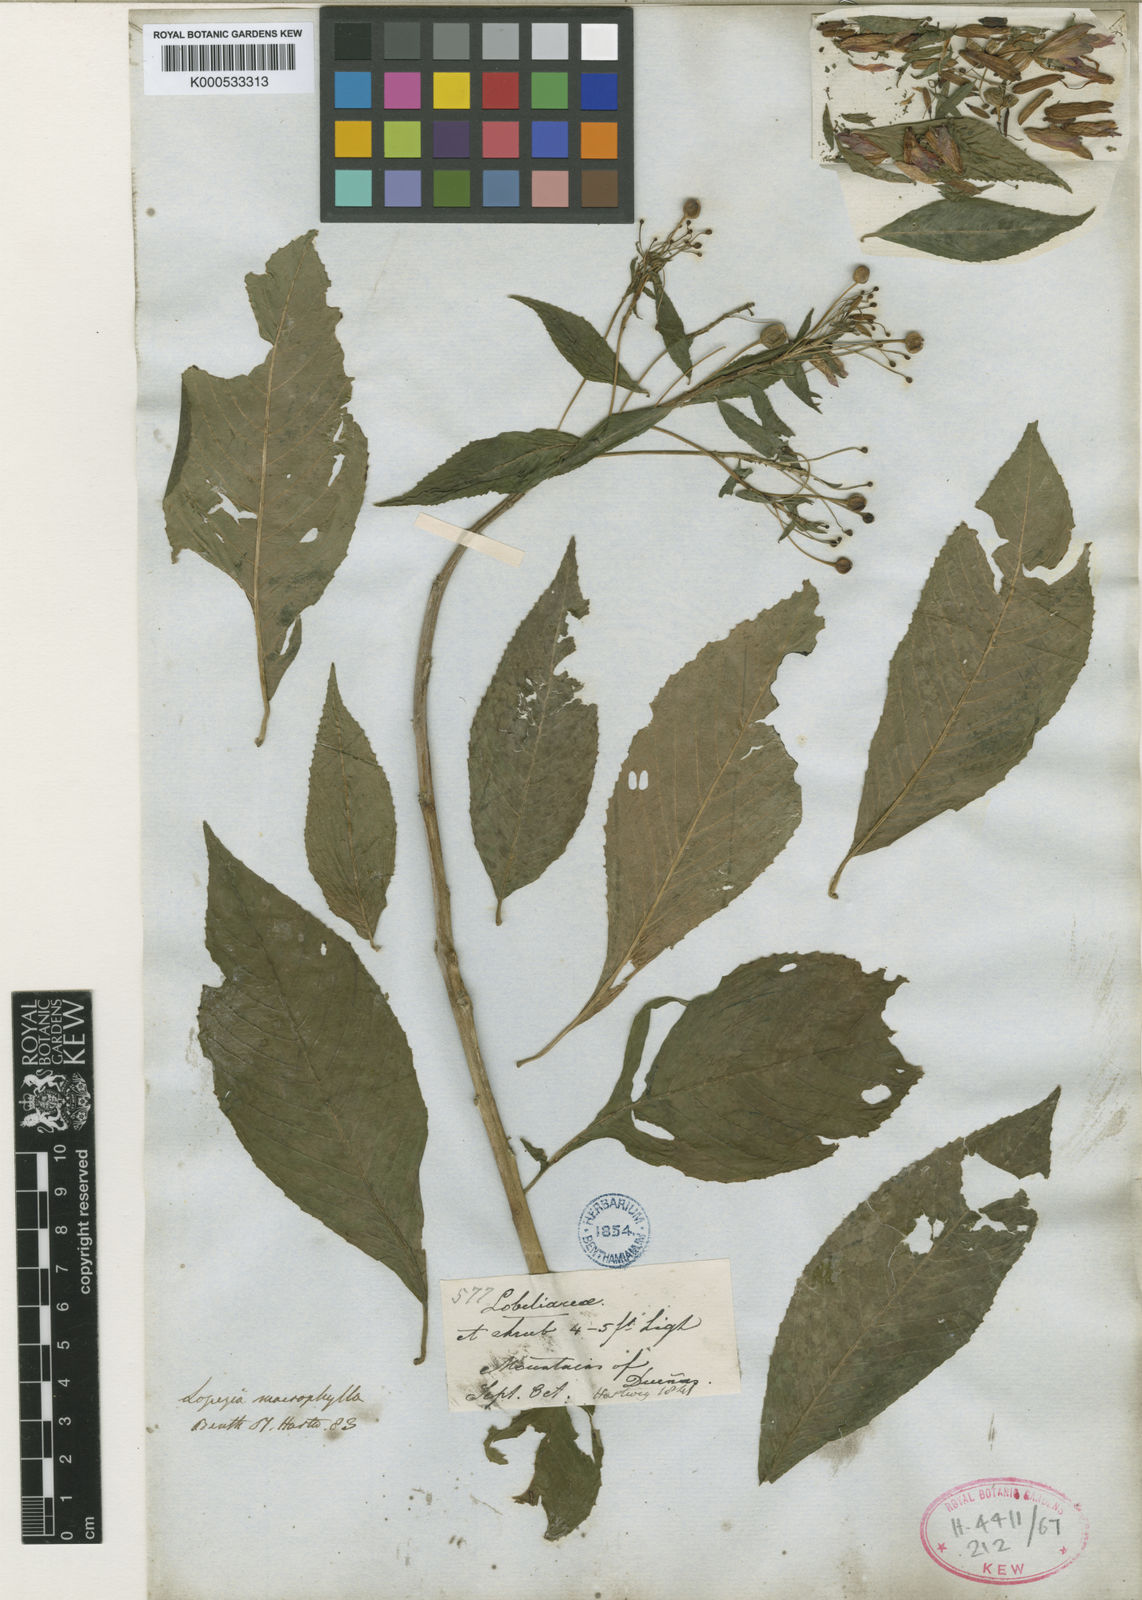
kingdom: Plantae
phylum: Tracheophyta
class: Magnoliopsida
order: Myrtales
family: Onagraceae
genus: Lopezia
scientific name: Lopezia grandiflora
